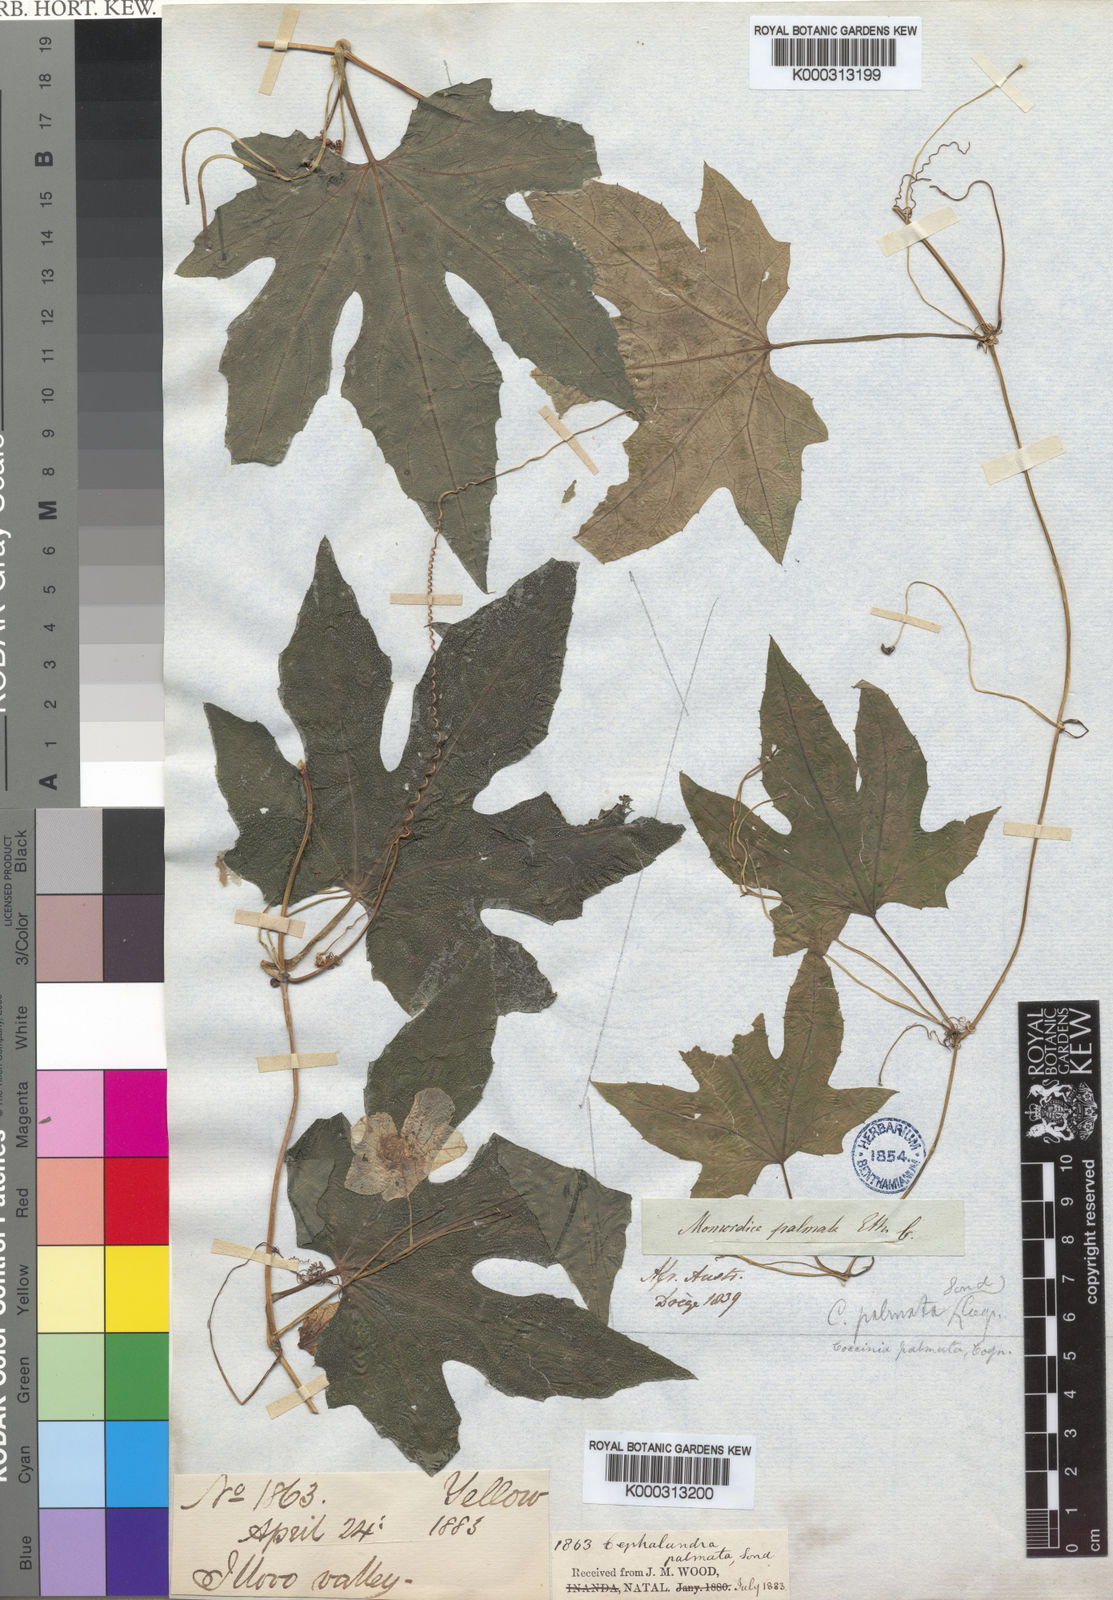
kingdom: Plantae
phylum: Tracheophyta
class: Magnoliopsida
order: Cucurbitales
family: Cucurbitaceae
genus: Coccinia
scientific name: Coccinia palmata
